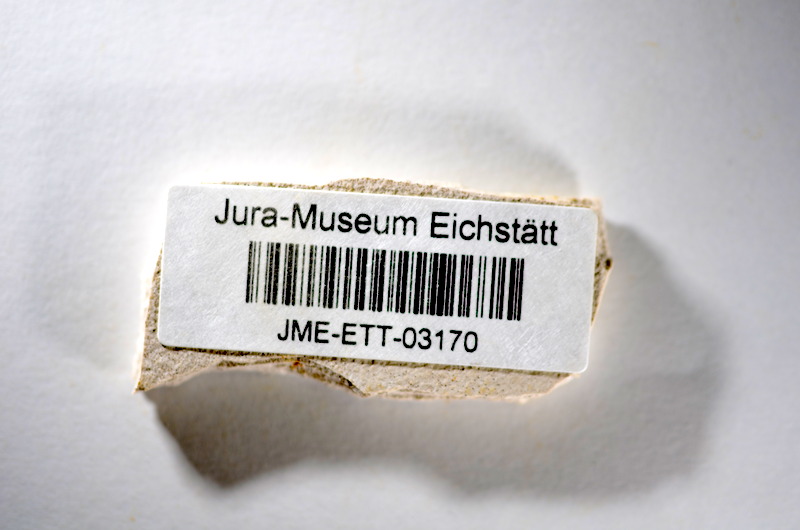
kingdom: Animalia
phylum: Chordata
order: Salmoniformes
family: Orthogonikleithridae
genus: Orthogonikleithrus
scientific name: Orthogonikleithrus hoelli
